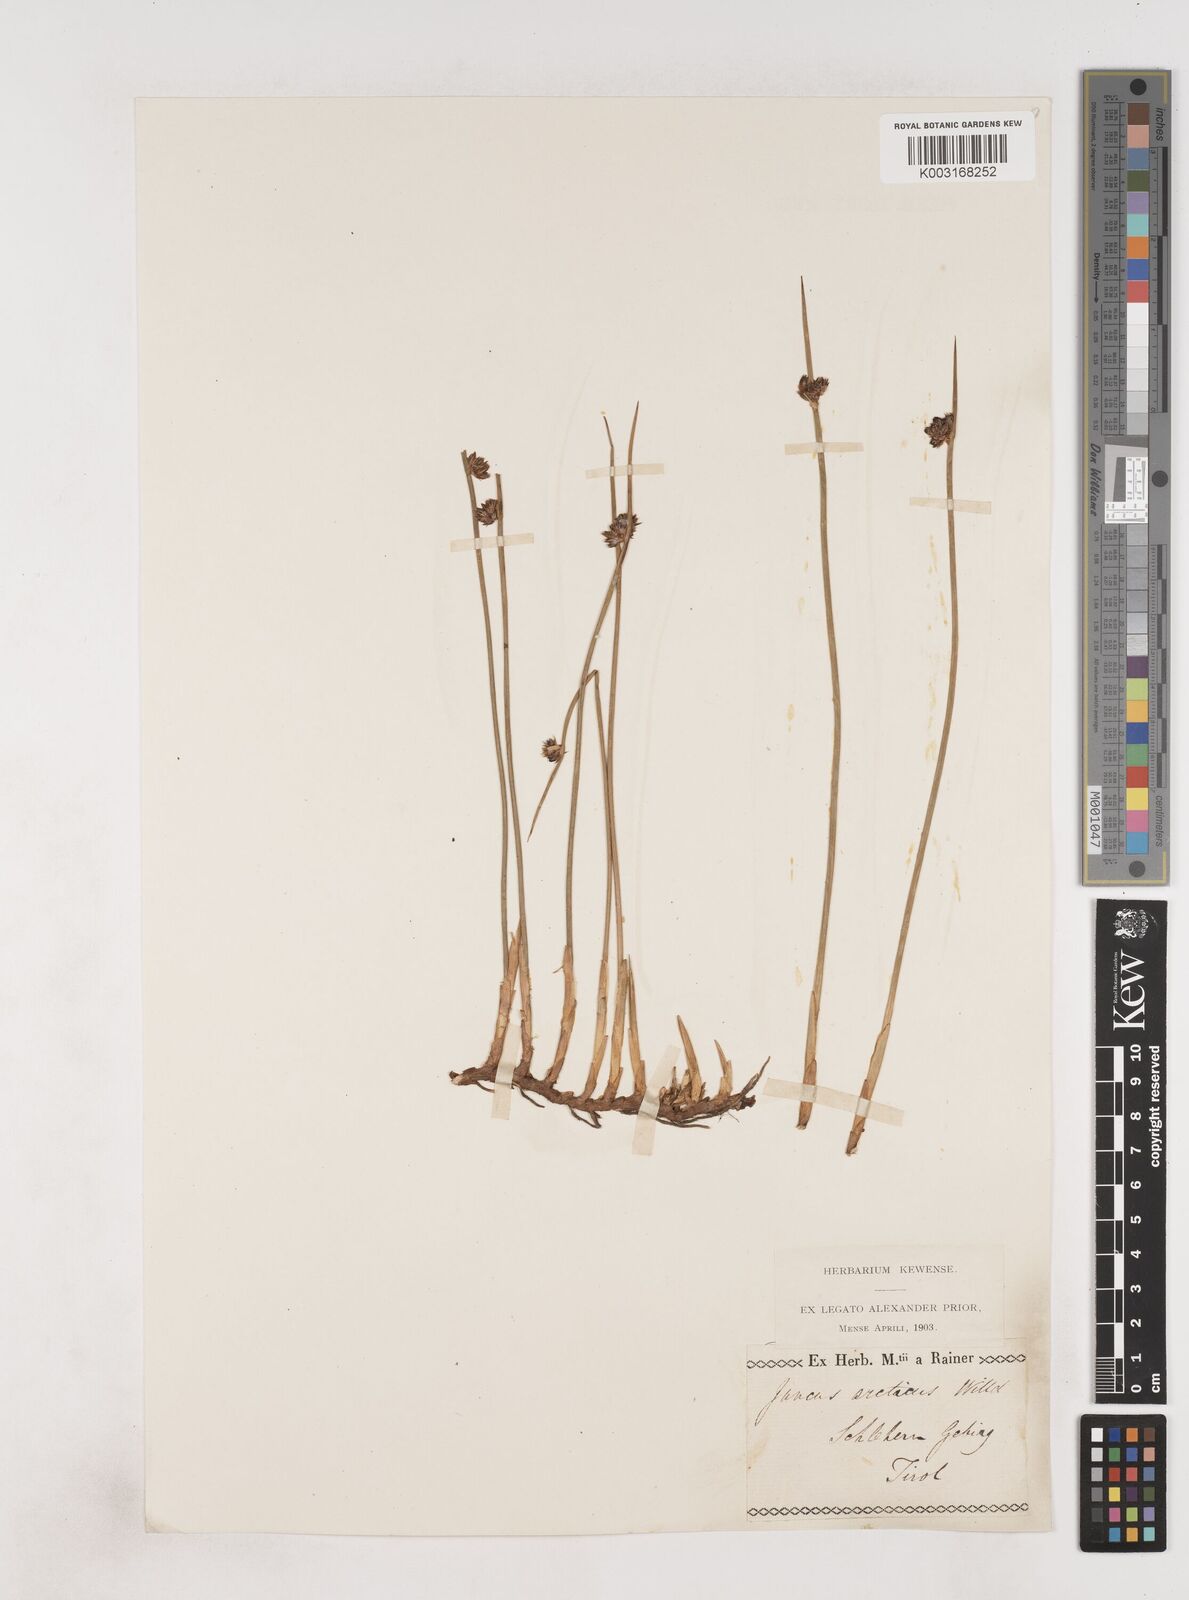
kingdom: Plantae
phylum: Tracheophyta
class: Liliopsida
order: Poales
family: Juncaceae
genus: Juncus
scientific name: Juncus arcticus
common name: Arctic rush
